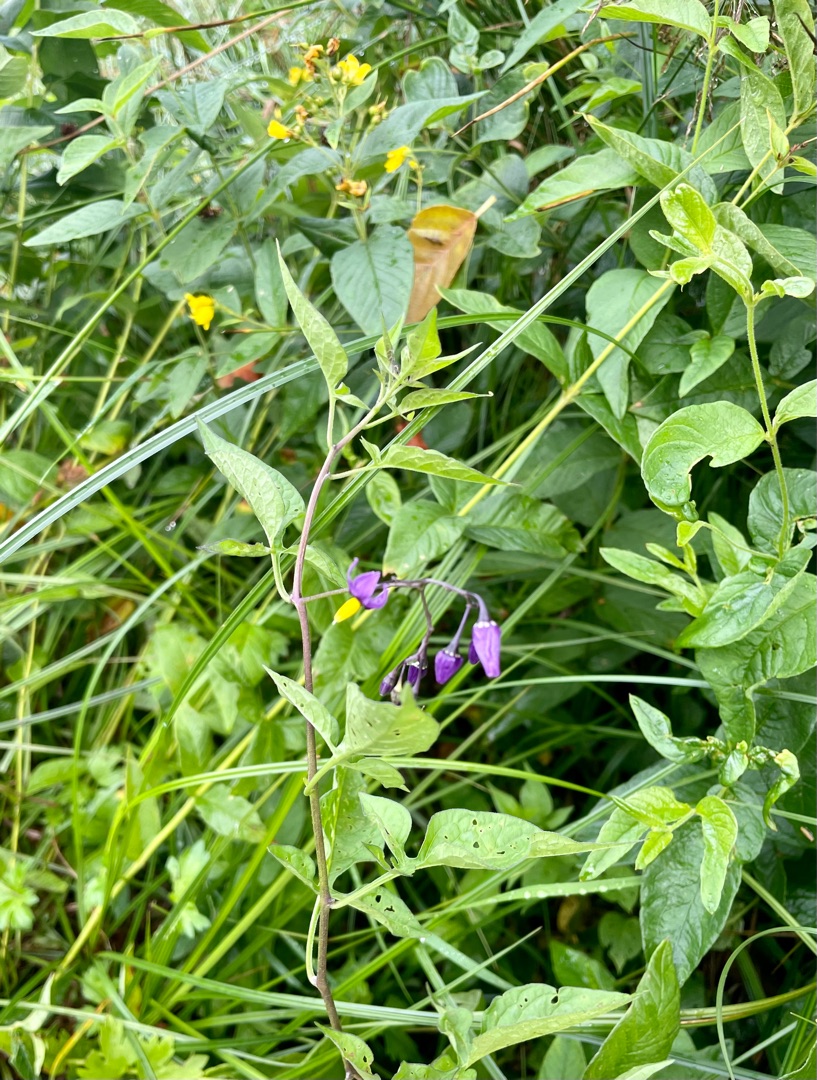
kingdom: Plantae
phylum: Tracheophyta
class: Magnoliopsida
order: Solanales
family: Solanaceae
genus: Solanum
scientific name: Solanum dulcamara
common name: Bittersød natskygge
